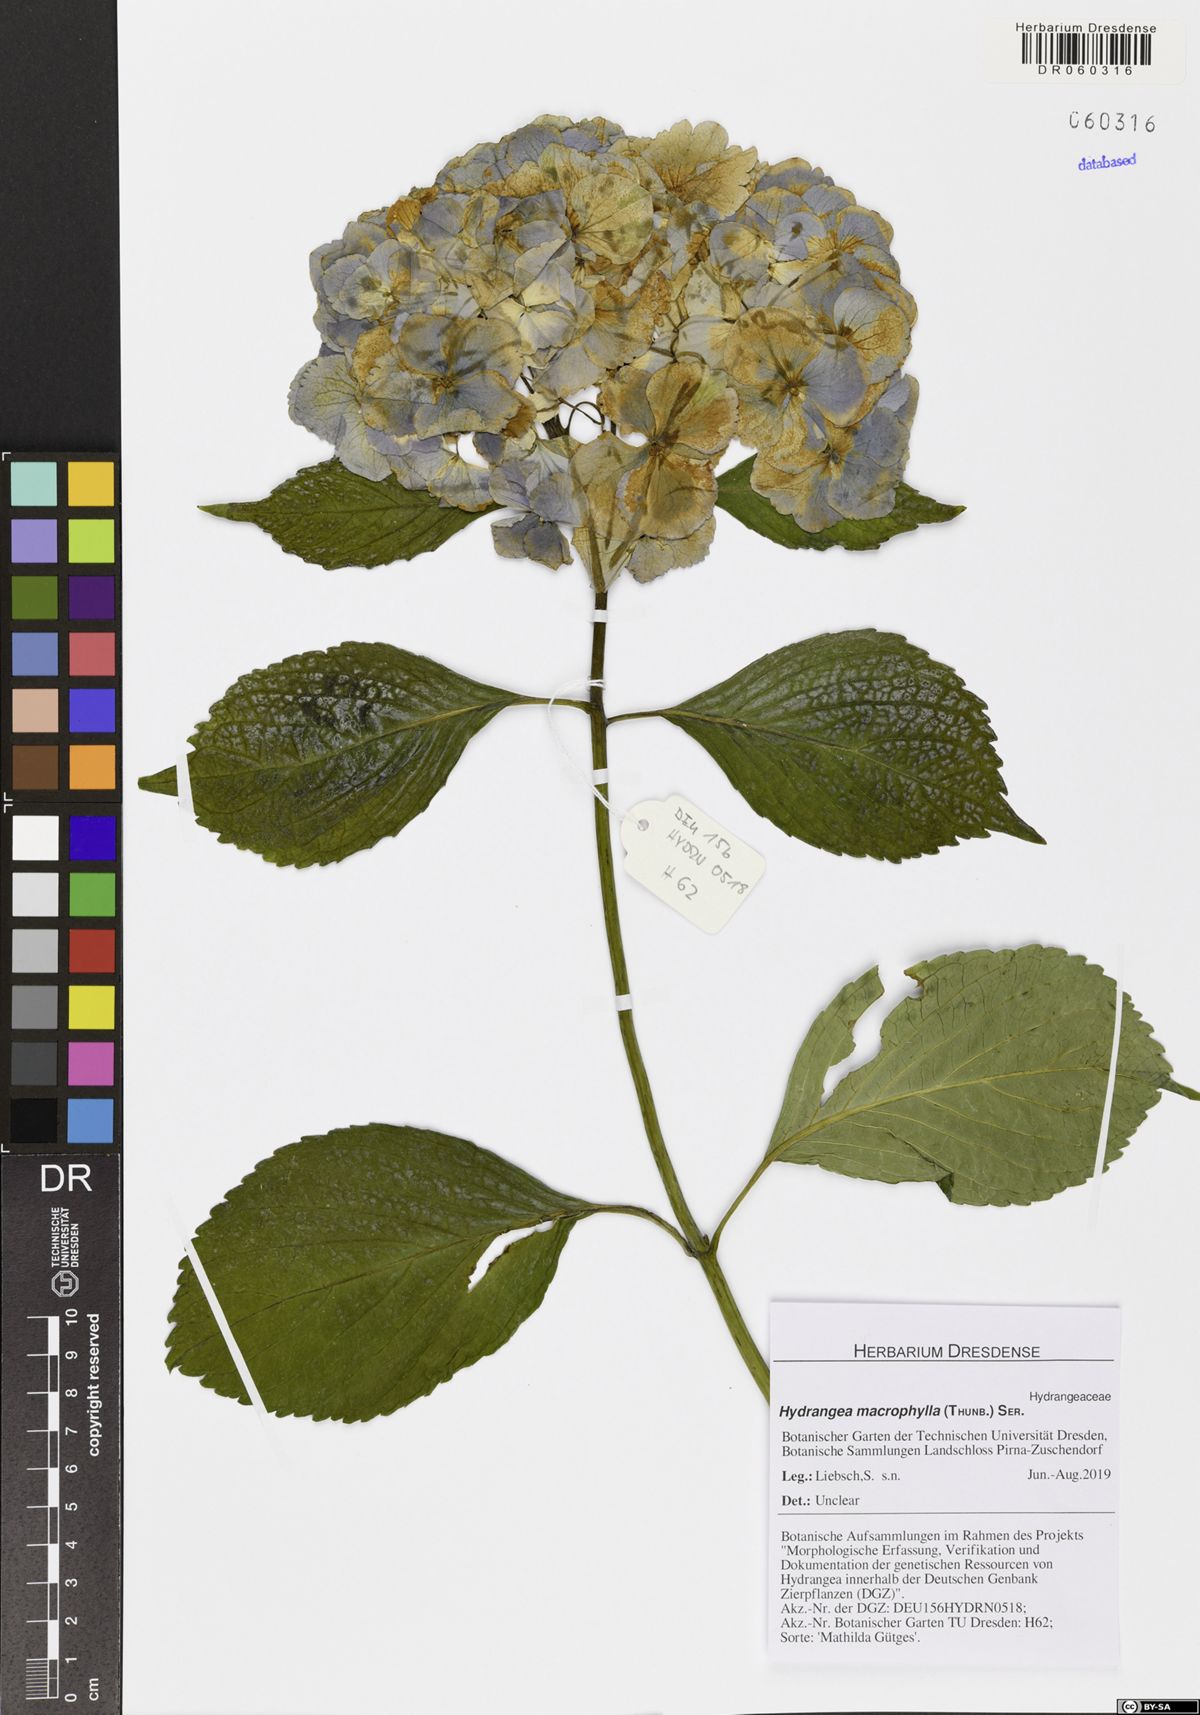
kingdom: Plantae
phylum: Tracheophyta
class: Magnoliopsida
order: Cornales
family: Hydrangeaceae
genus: Hydrangea
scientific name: Hydrangea macrophylla
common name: Hydrangea
